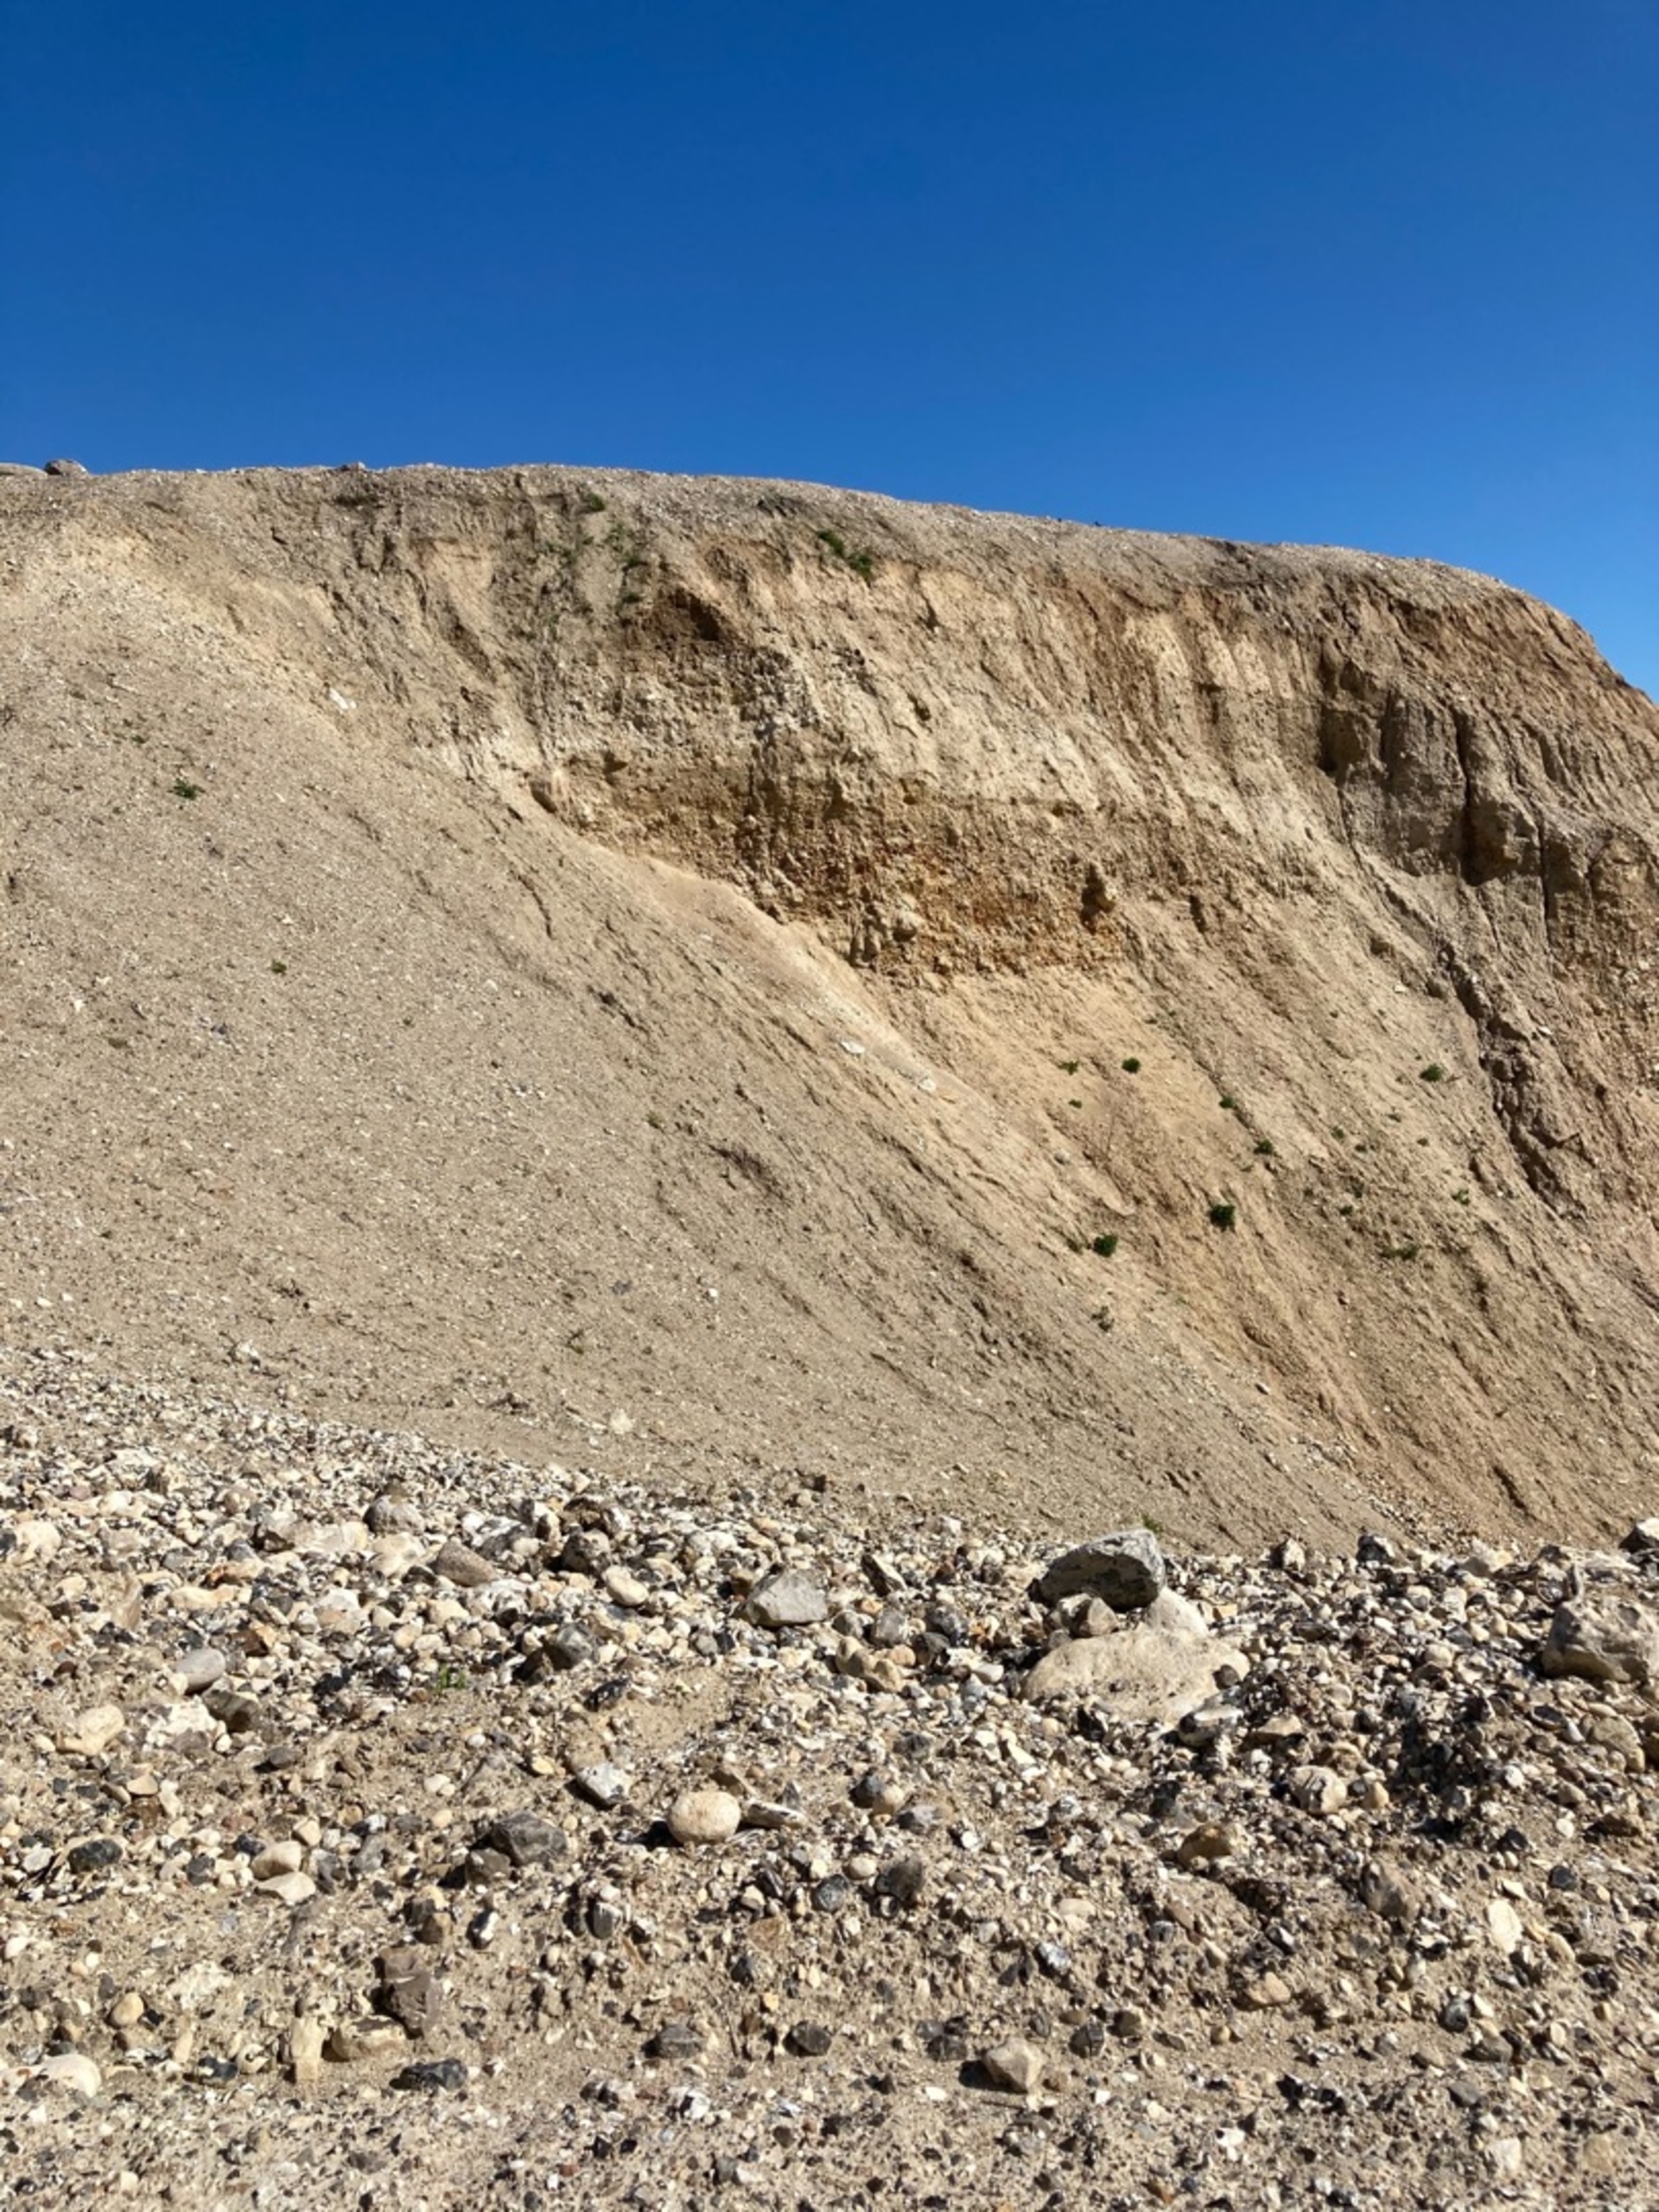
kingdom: Animalia
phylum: Chordata
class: Aves
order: Passeriformes
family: Hirundinidae
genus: Riparia
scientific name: Riparia riparia
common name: Digesvale
